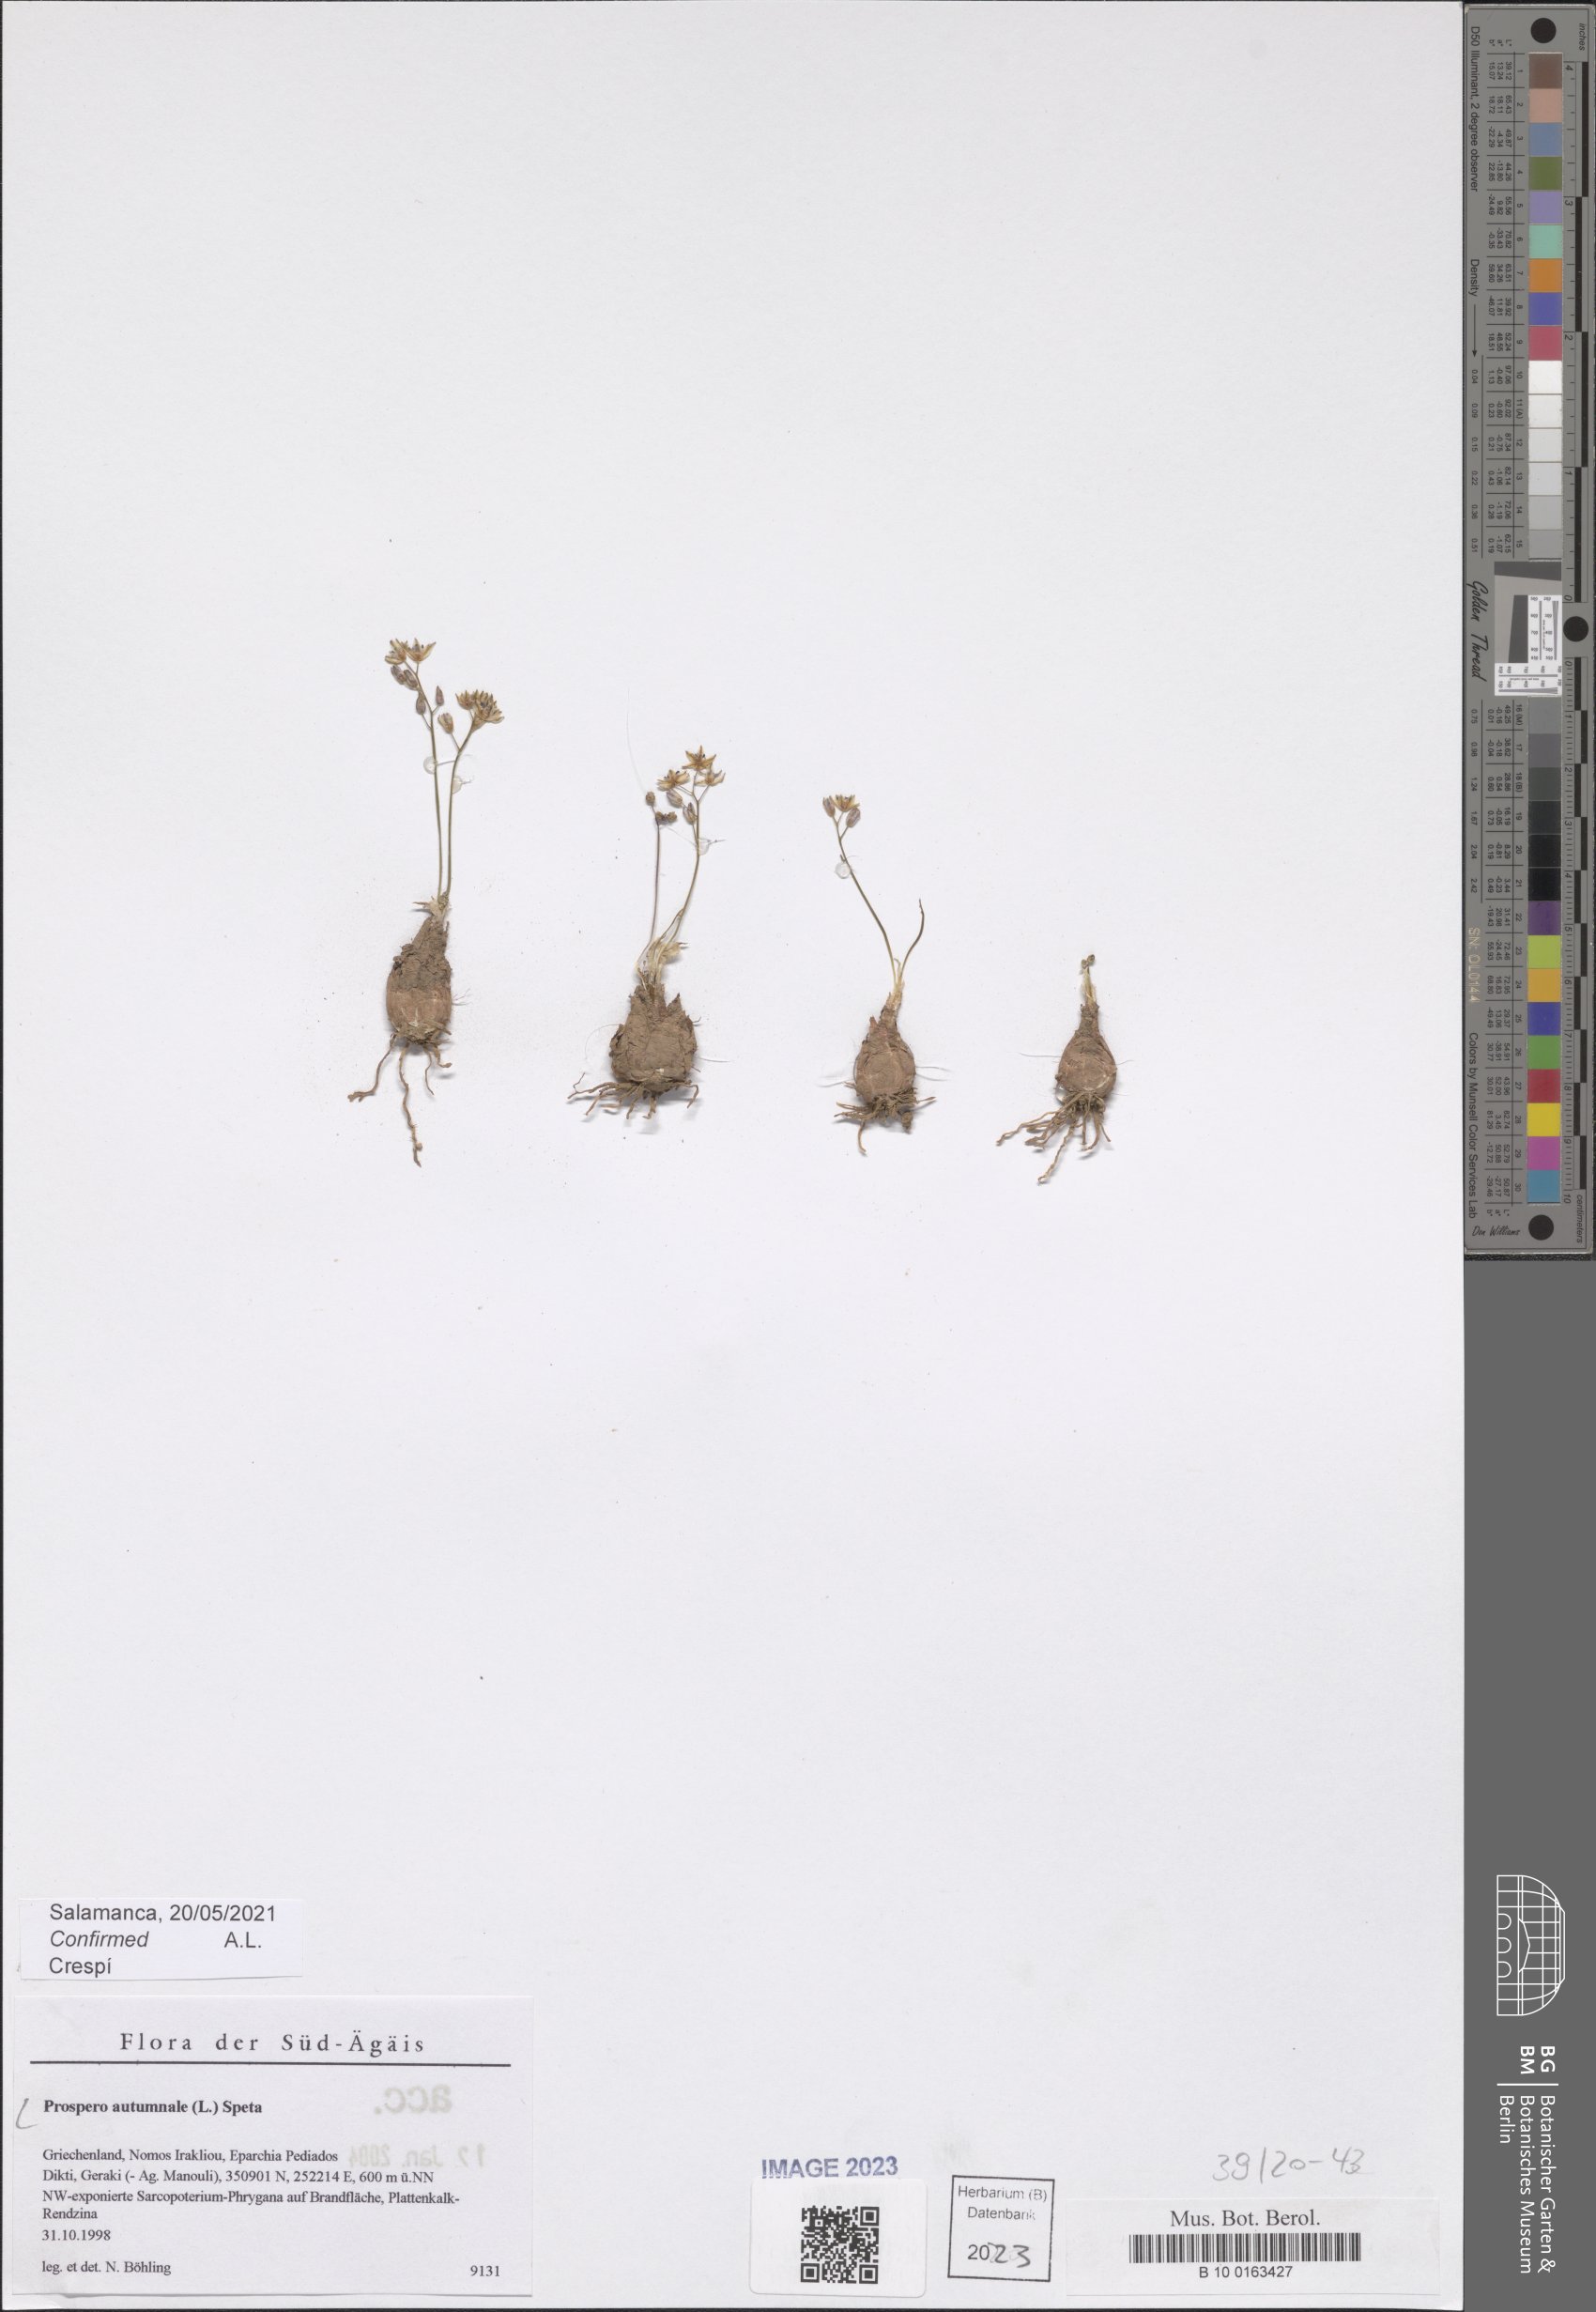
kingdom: Plantae
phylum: Tracheophyta
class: Liliopsida
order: Asparagales
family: Asparagaceae
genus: Prospero
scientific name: Prospero autumnale
